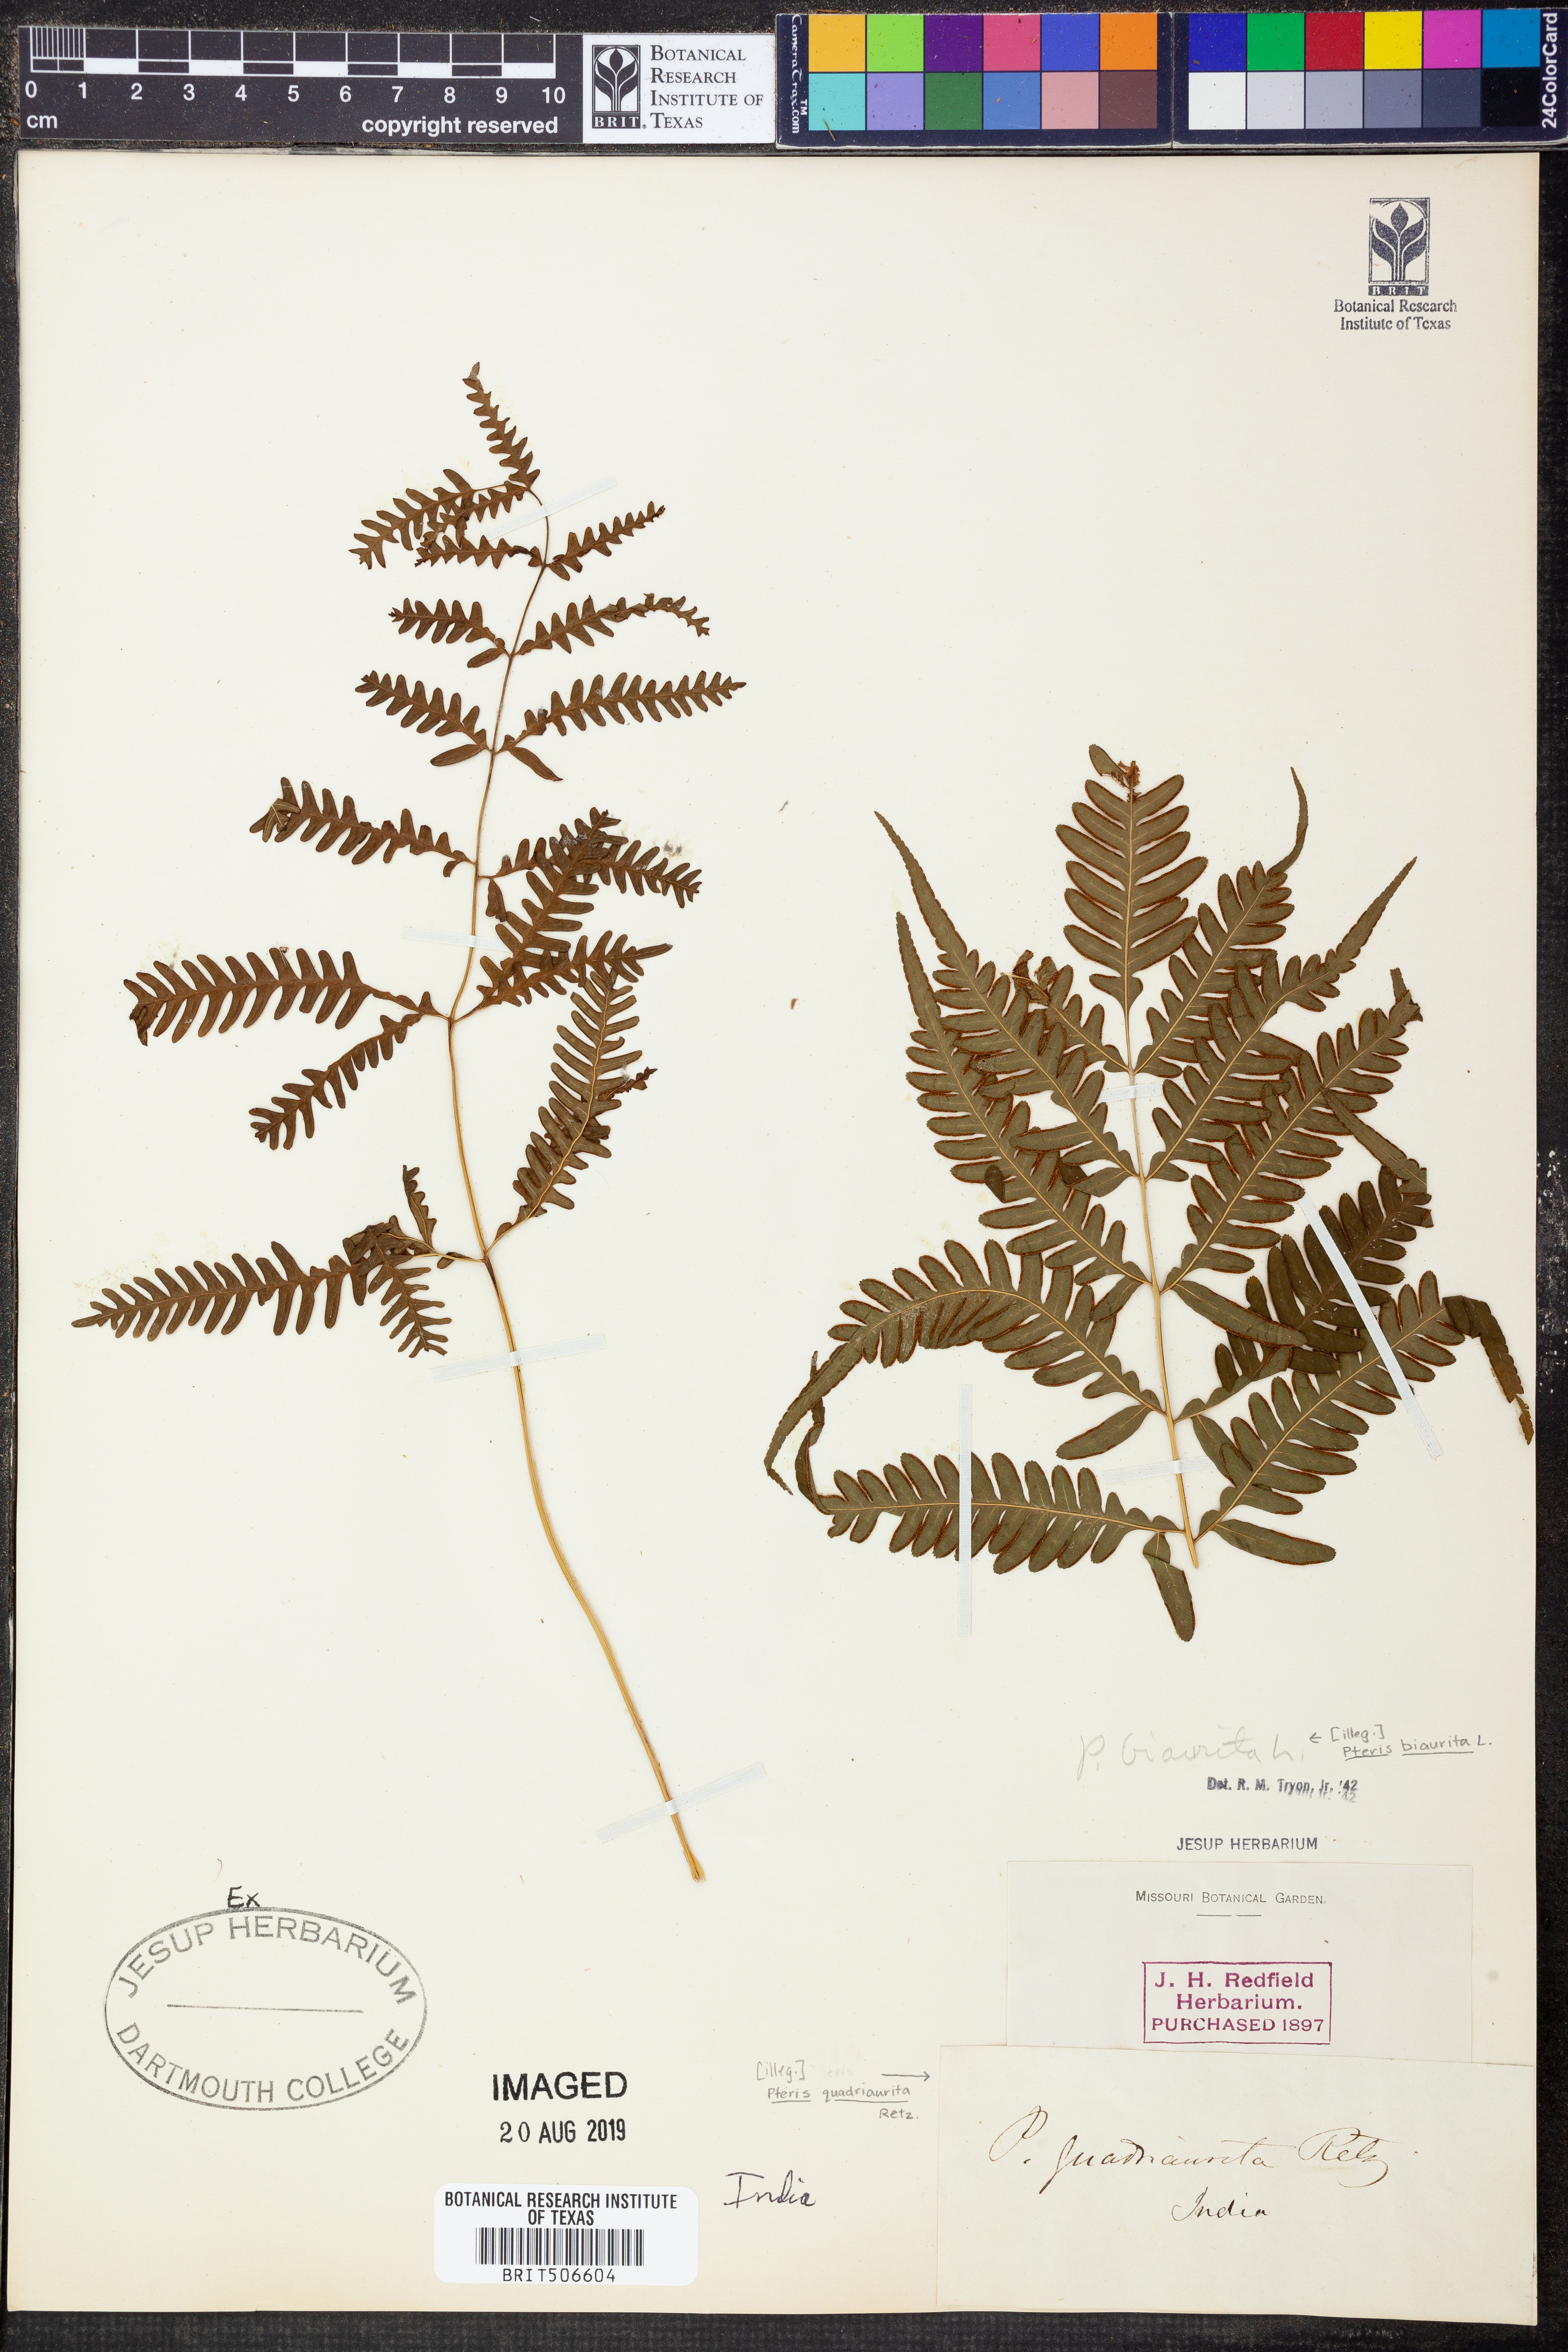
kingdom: Plantae
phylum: Tracheophyta
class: Polypodiopsida
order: Polypodiales
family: Pteridaceae
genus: Pteris
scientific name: Pteris biaurita
